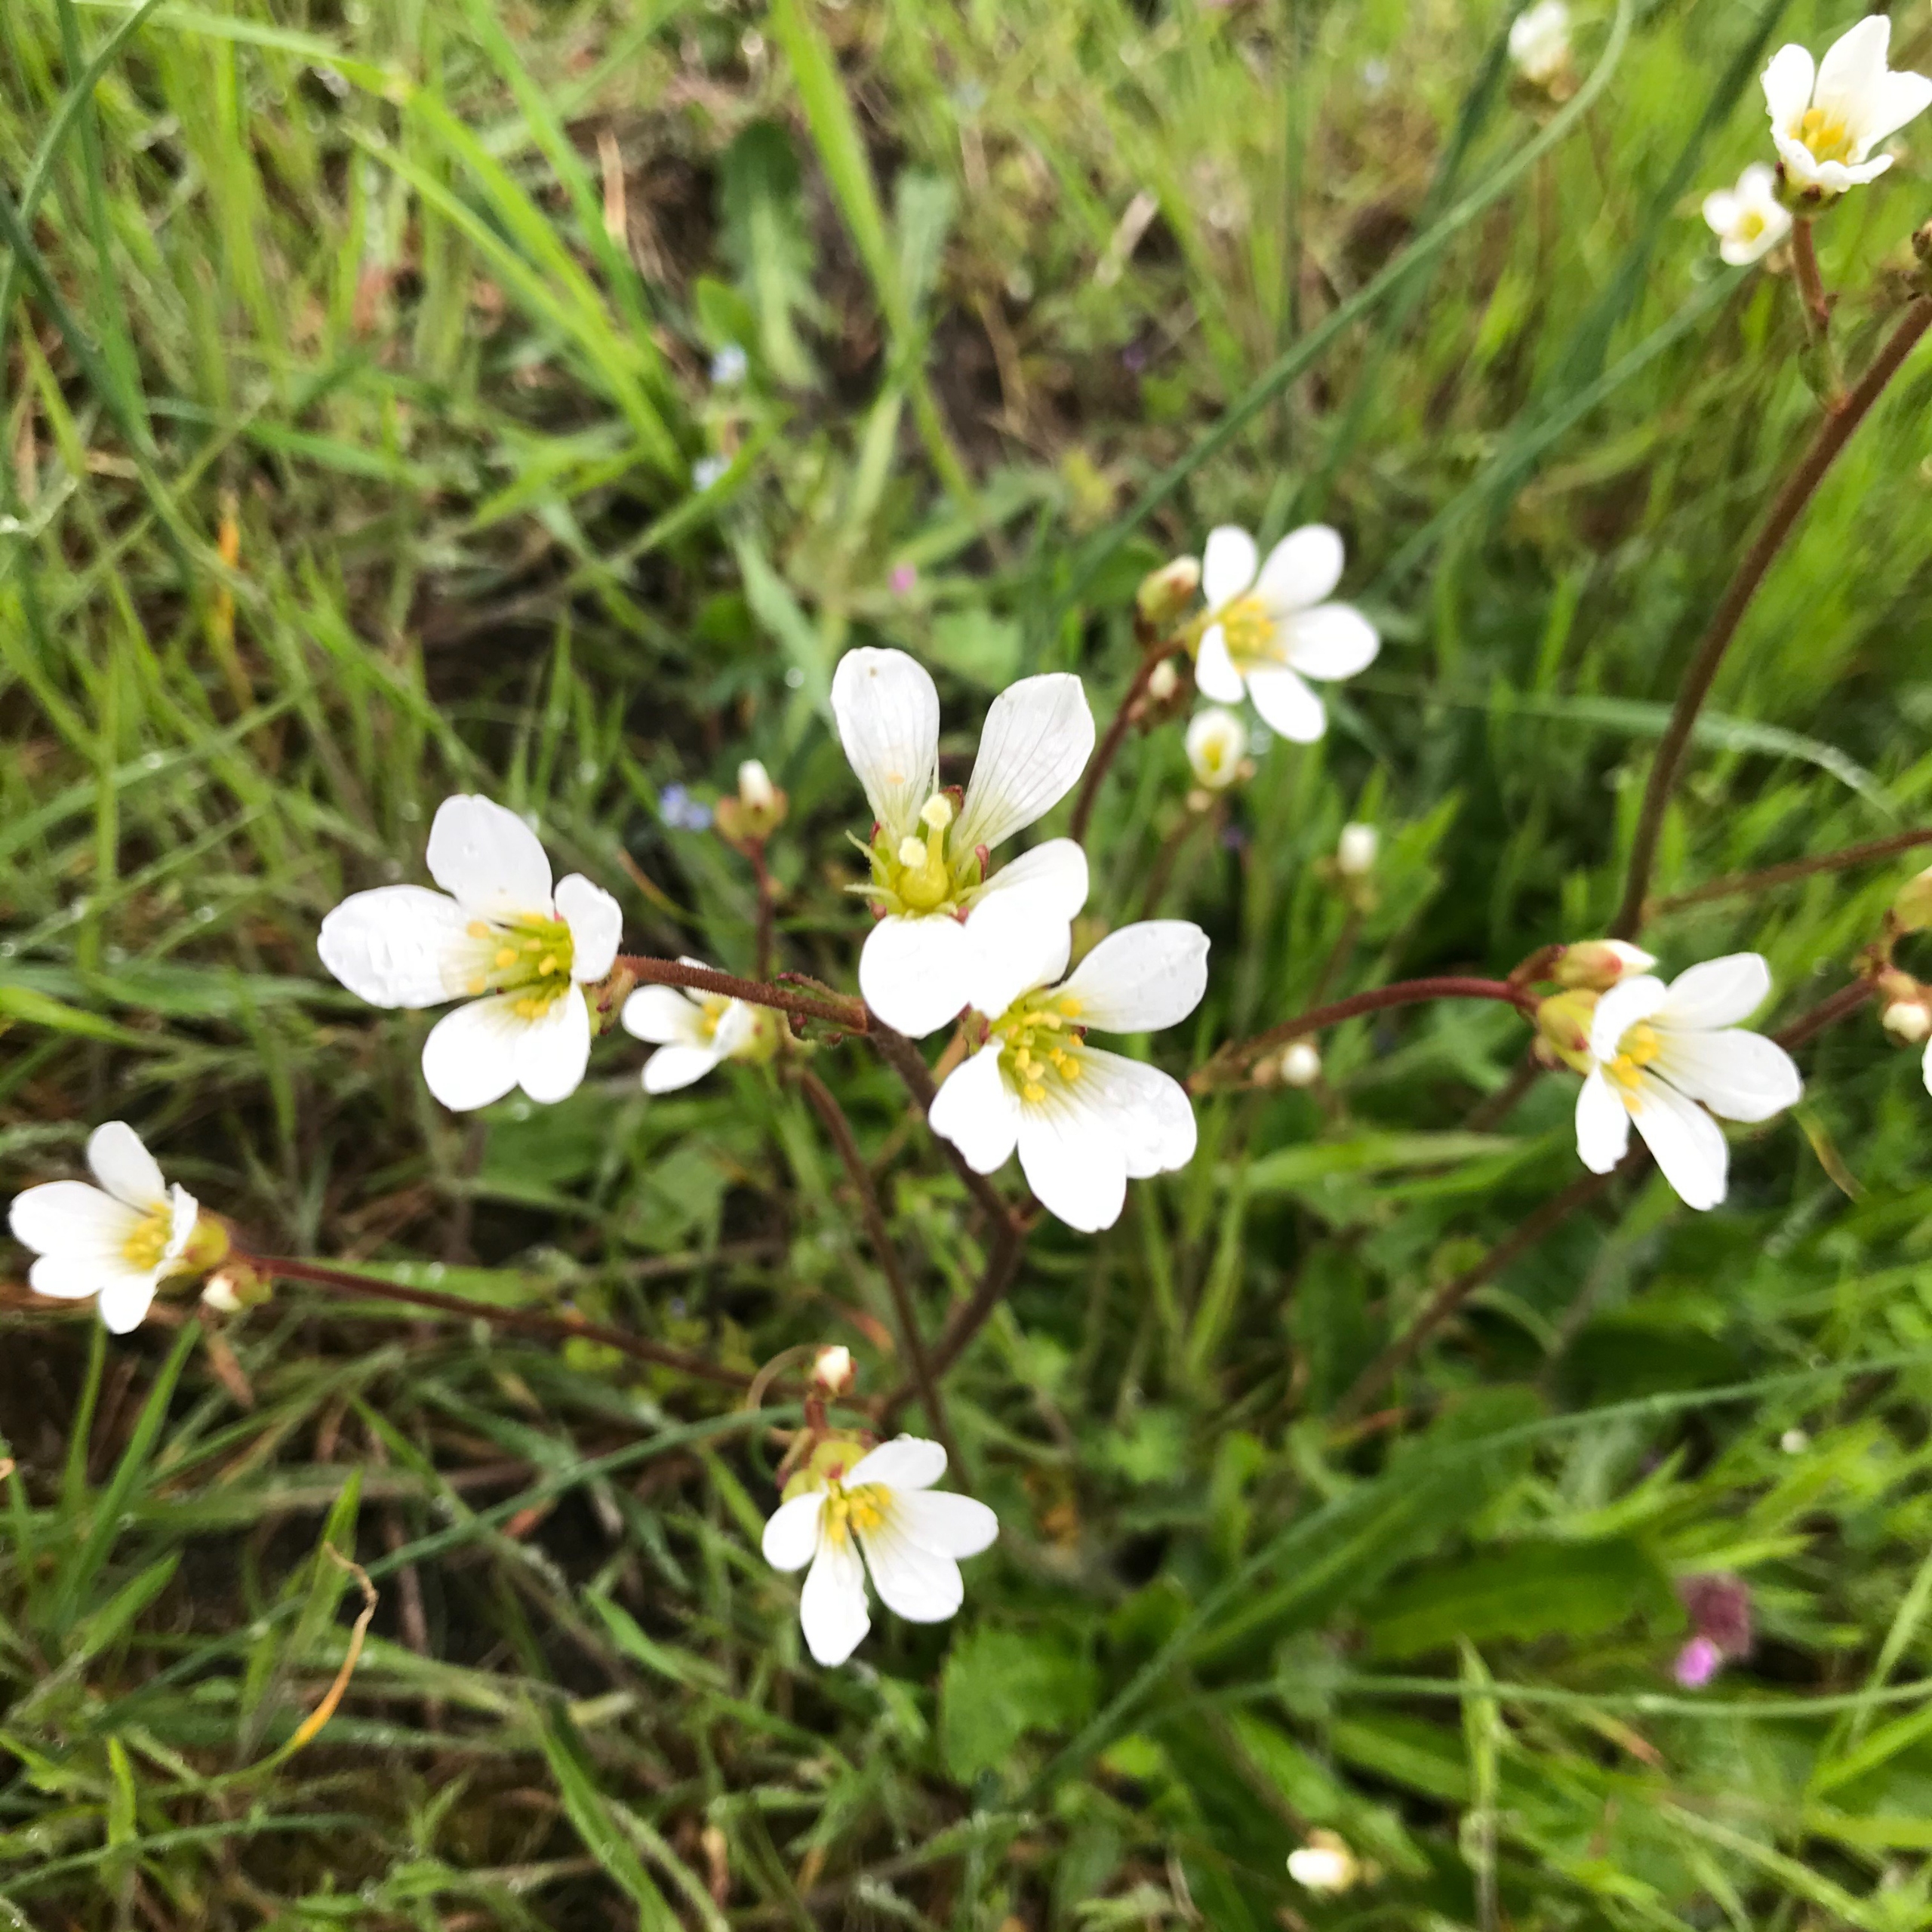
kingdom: Plantae
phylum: Tracheophyta
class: Magnoliopsida
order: Saxifragales
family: Saxifragaceae
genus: Saxifraga
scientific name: Saxifraga granulata
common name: Kornet stenbræk
